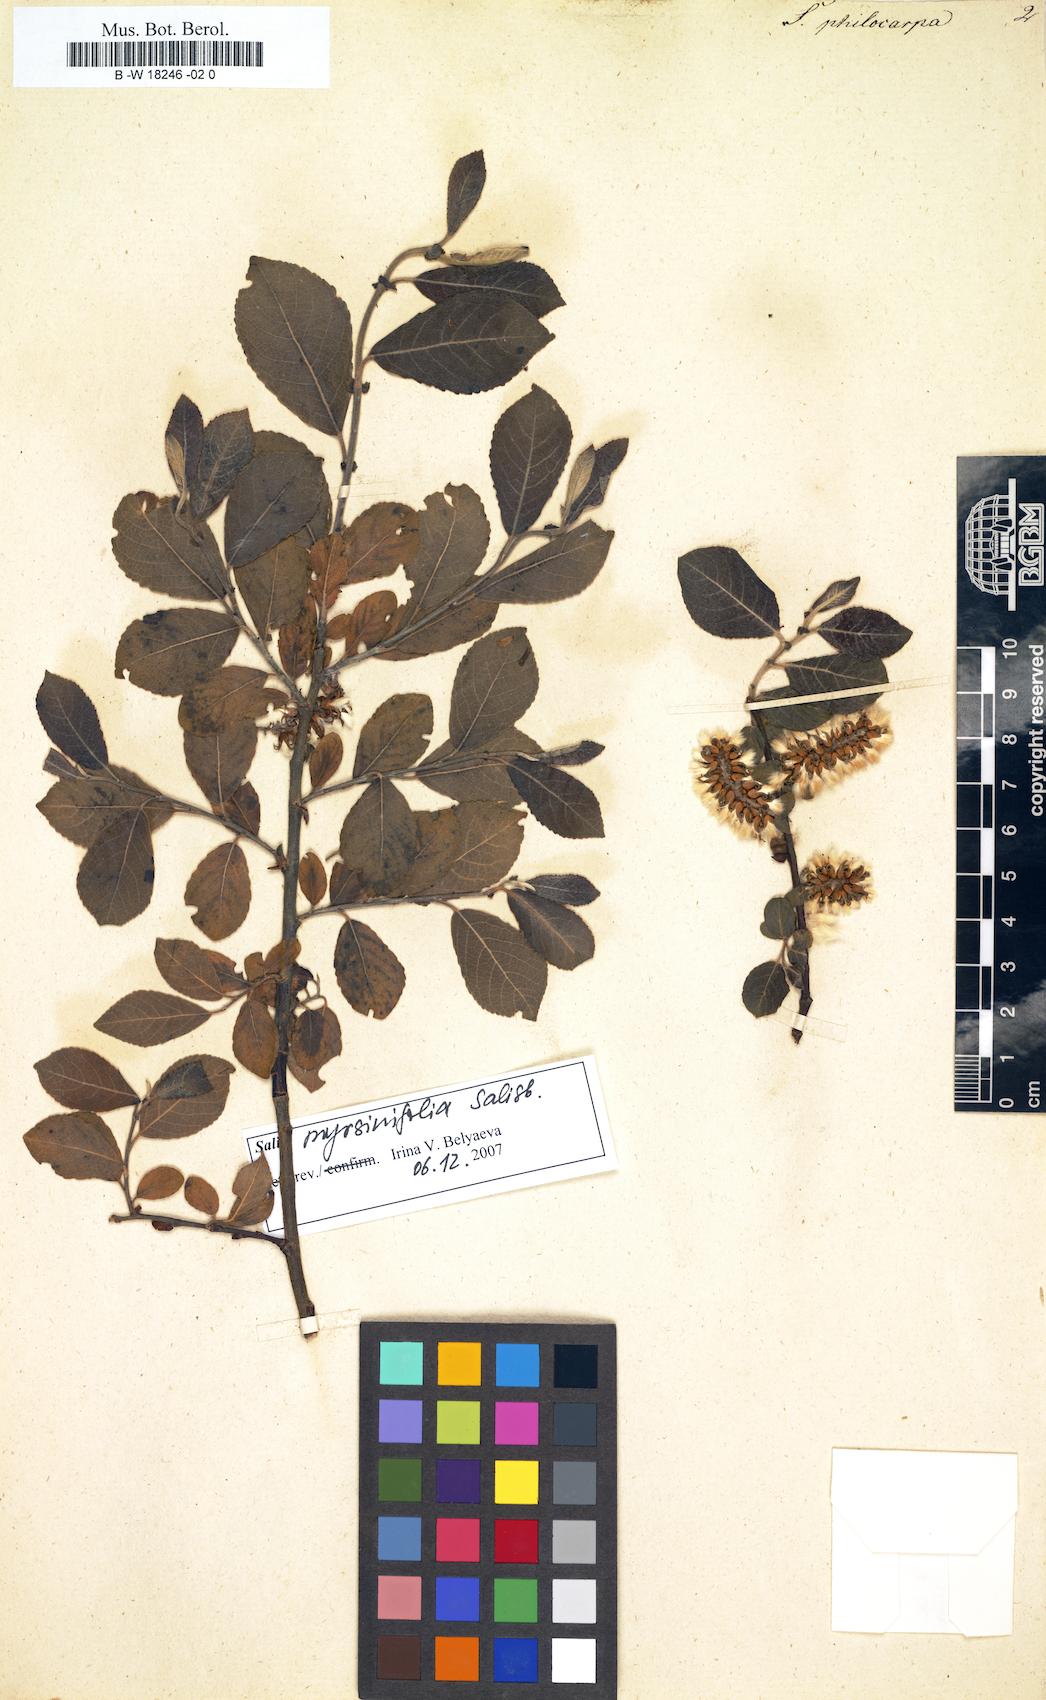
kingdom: Plantae
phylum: Tracheophyta
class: Magnoliopsida
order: Malpighiales
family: Salicaceae
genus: Salix
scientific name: Salix myrsinifolia
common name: Dark-leaved willow
